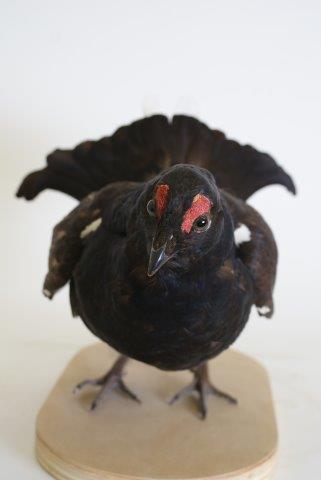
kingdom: Animalia
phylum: Chordata
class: Aves
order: Galliformes
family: Phasianidae
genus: Lyrurus
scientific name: Lyrurus tetrix
